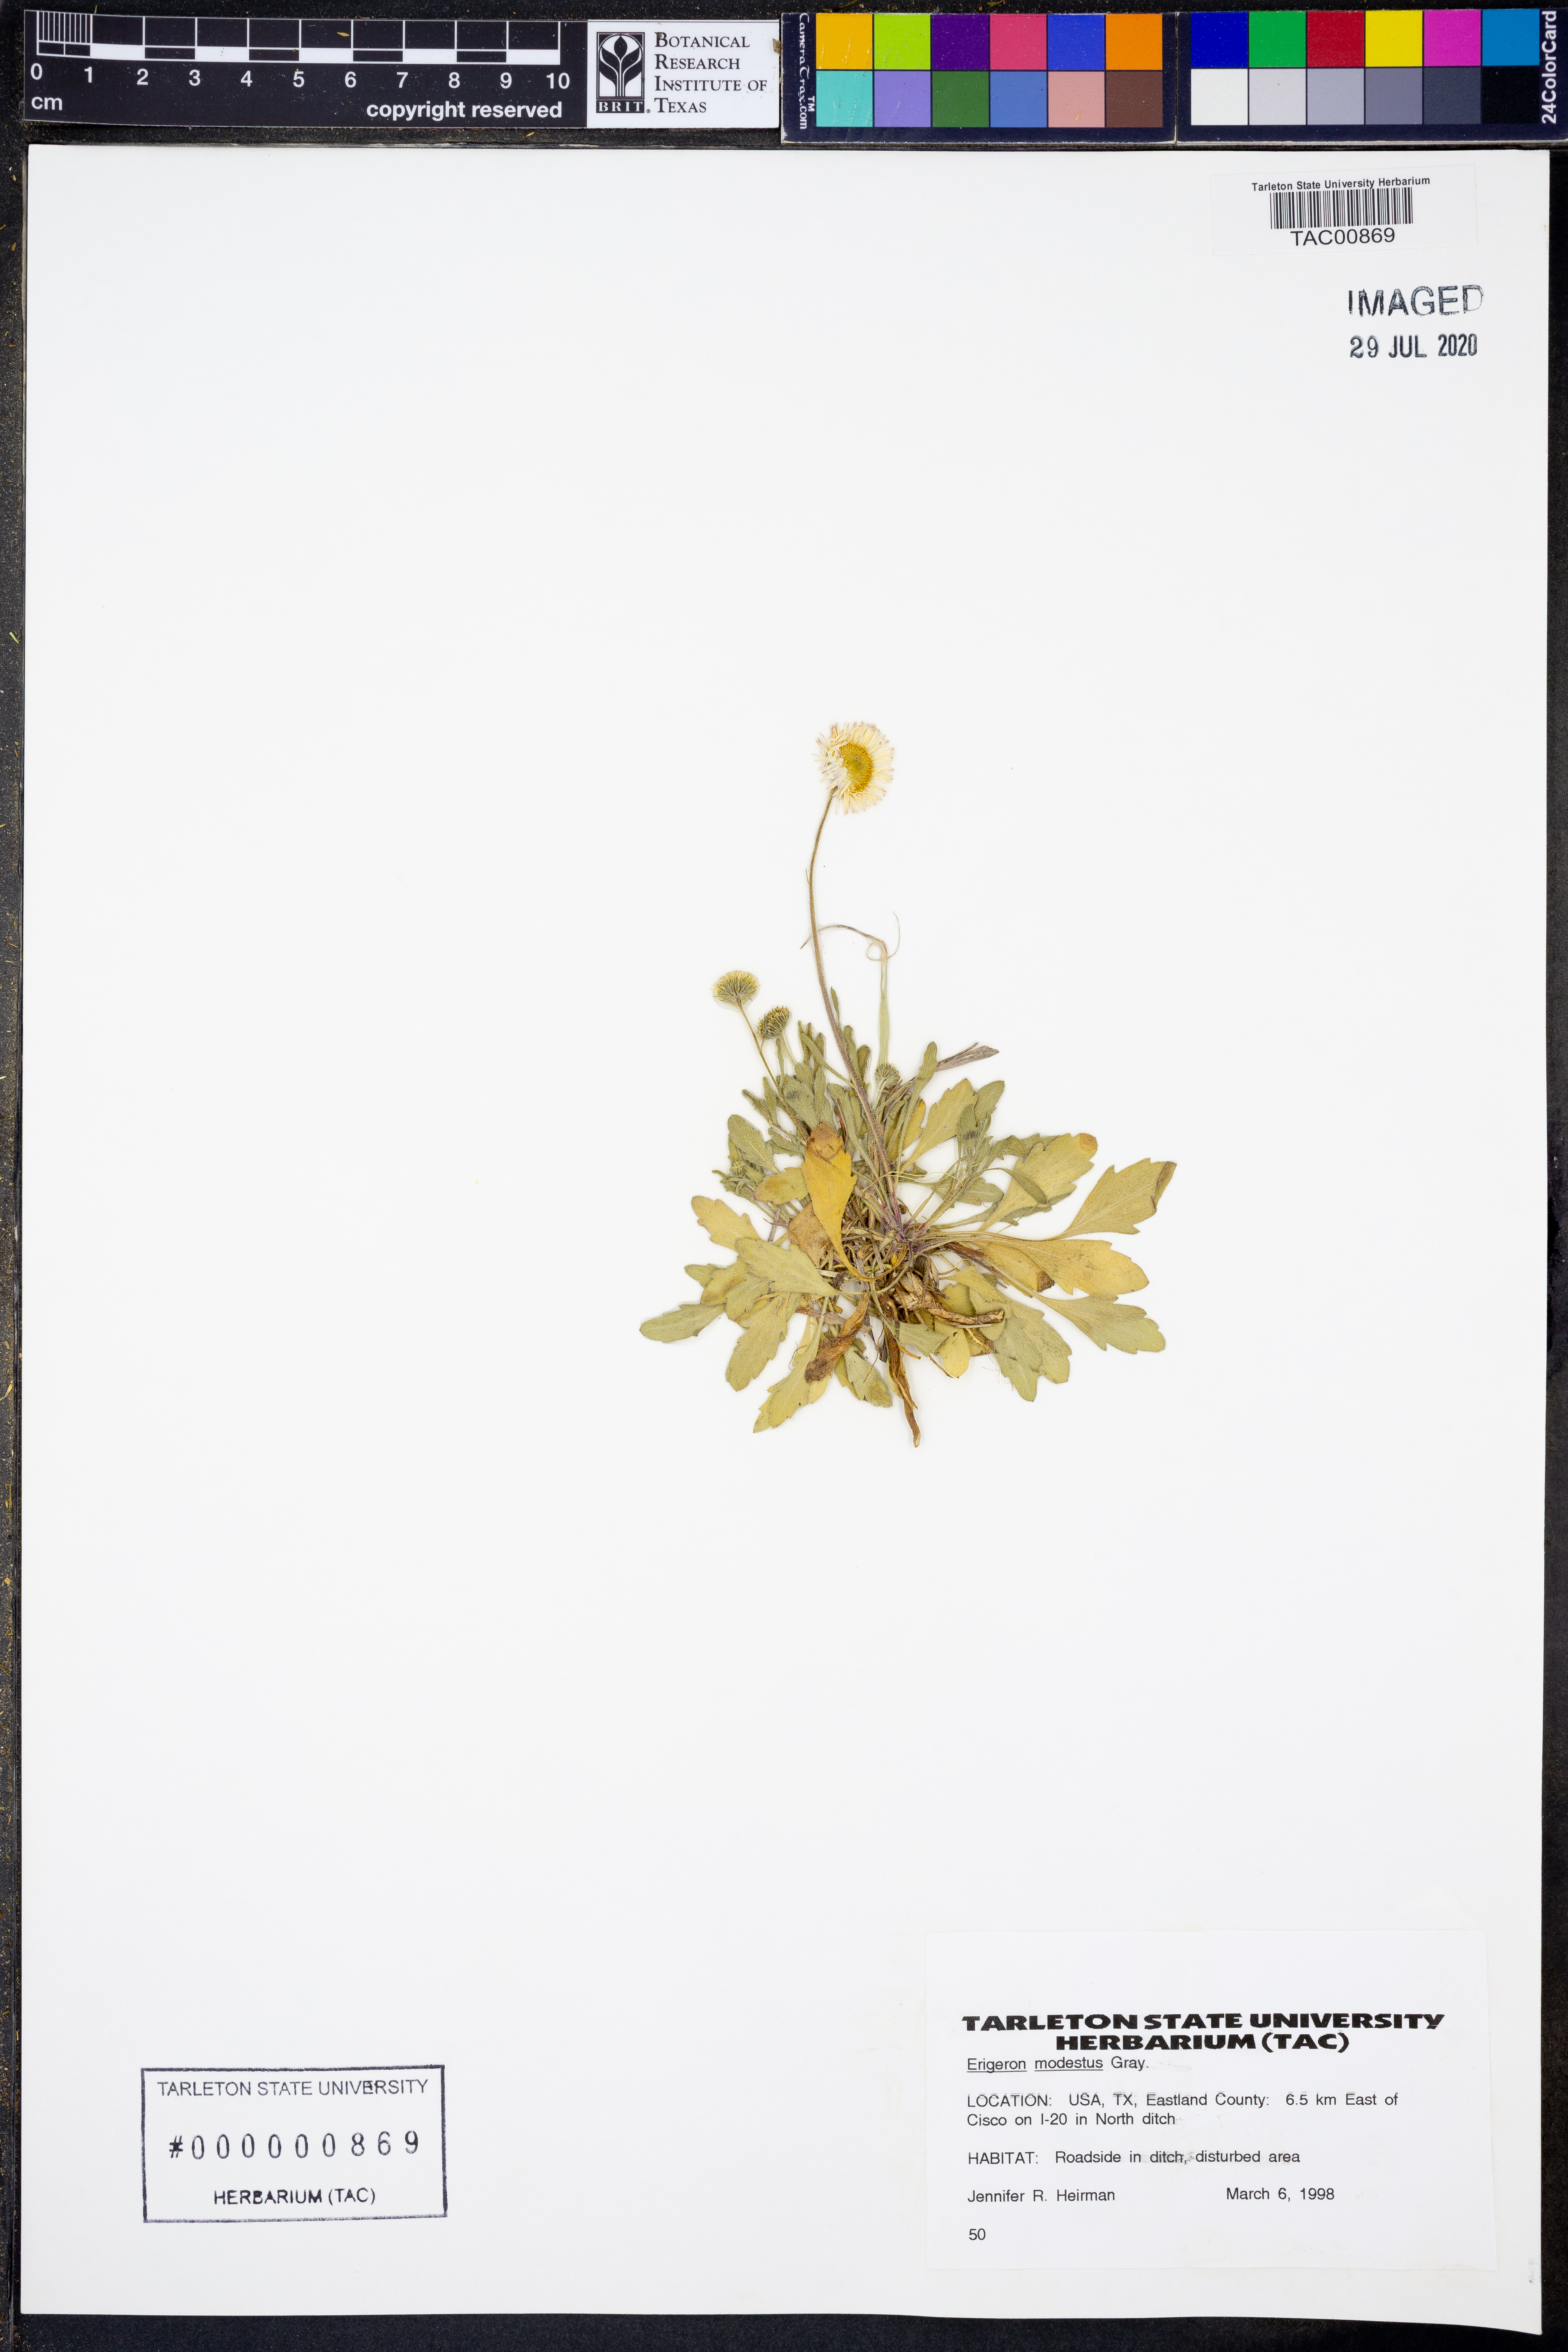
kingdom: Plantae
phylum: Tracheophyta
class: Magnoliopsida
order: Asterales
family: Asteraceae
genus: Erigeron
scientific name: Erigeron modestus
